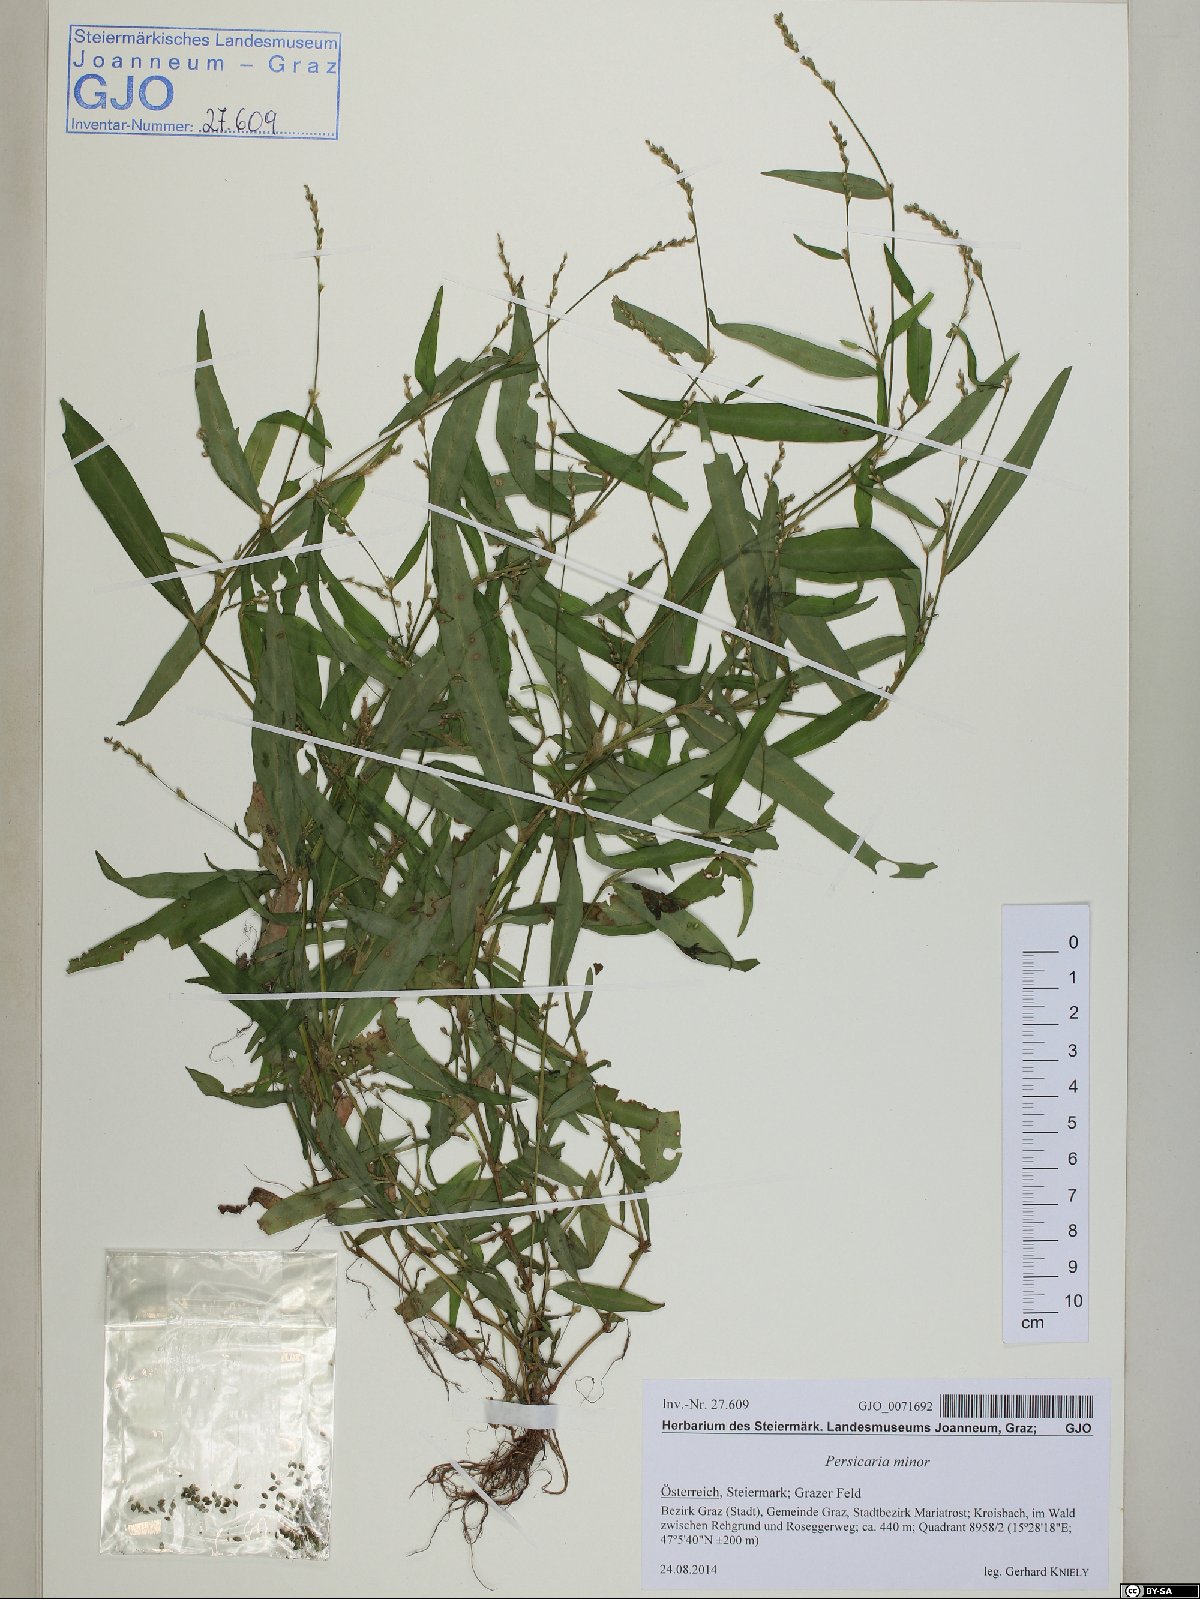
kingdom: Plantae
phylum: Tracheophyta
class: Magnoliopsida
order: Caryophyllales
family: Polygonaceae
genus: Persicaria
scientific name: Persicaria minor
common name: Small water-pepper
